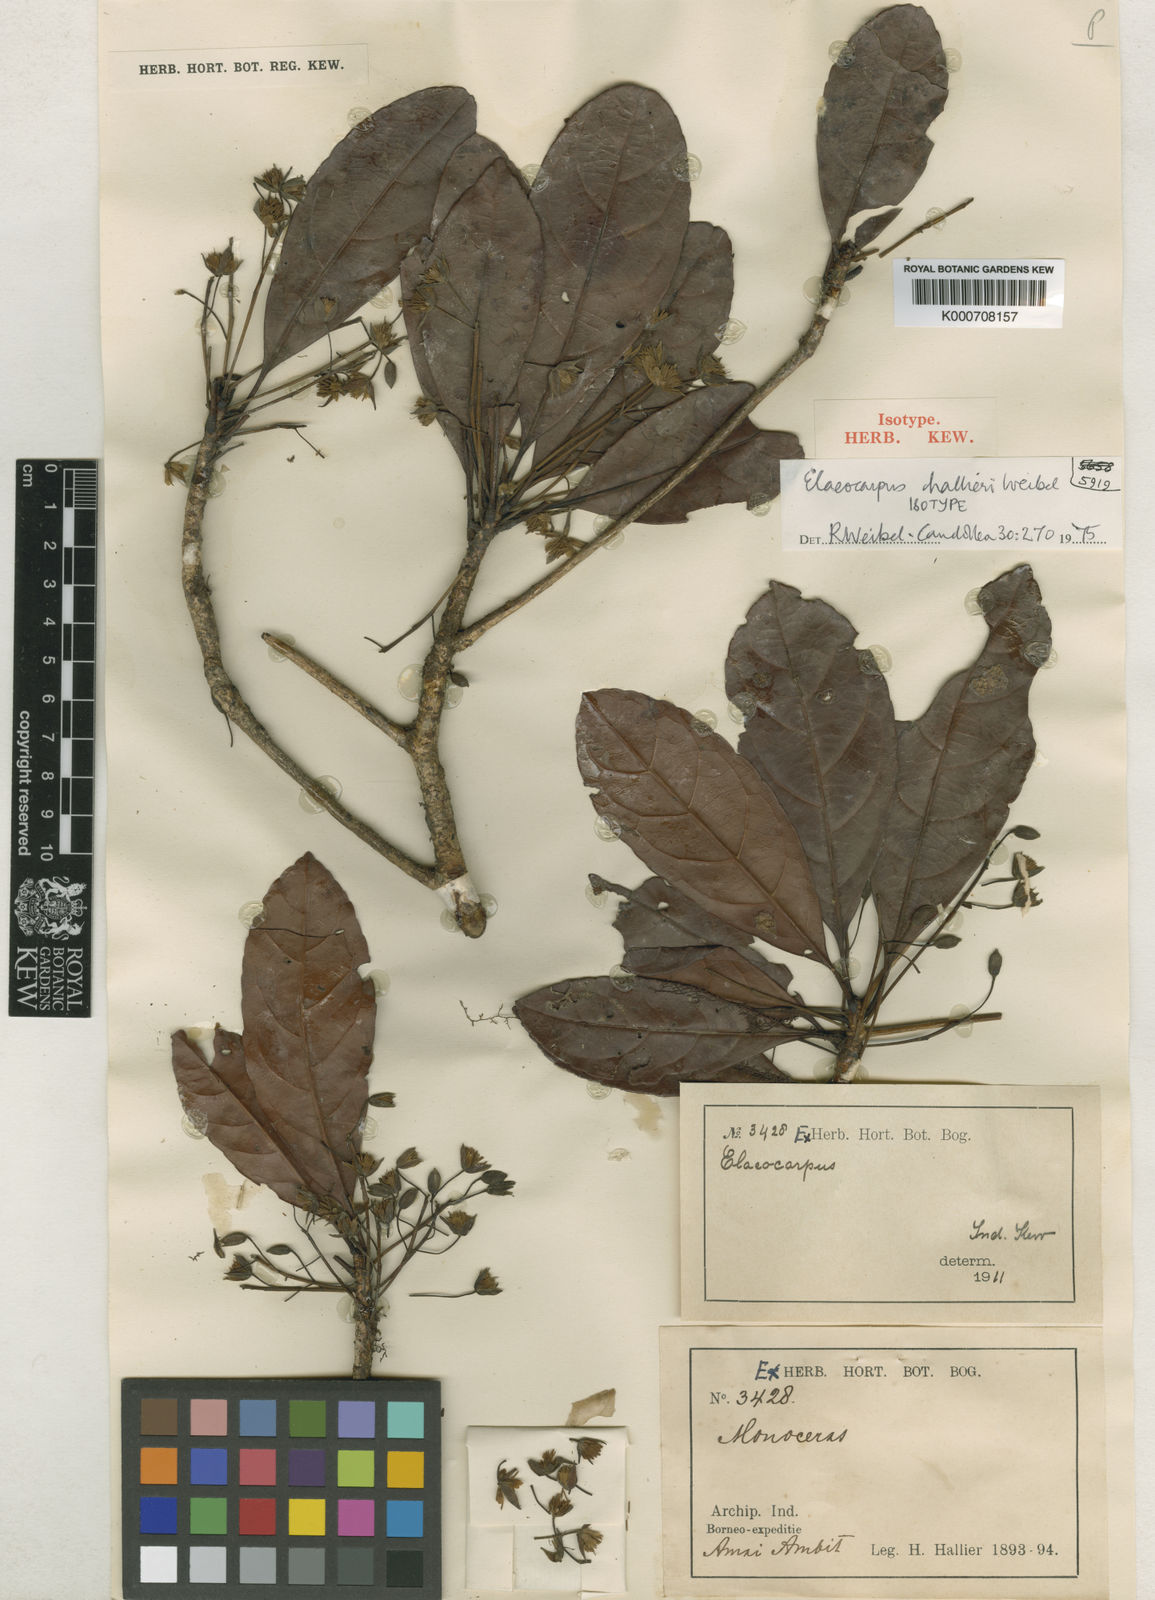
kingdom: Plantae
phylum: Tracheophyta
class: Magnoliopsida
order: Oxalidales
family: Elaeocarpaceae
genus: Elaeocarpus
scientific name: Elaeocarpus hallieri
